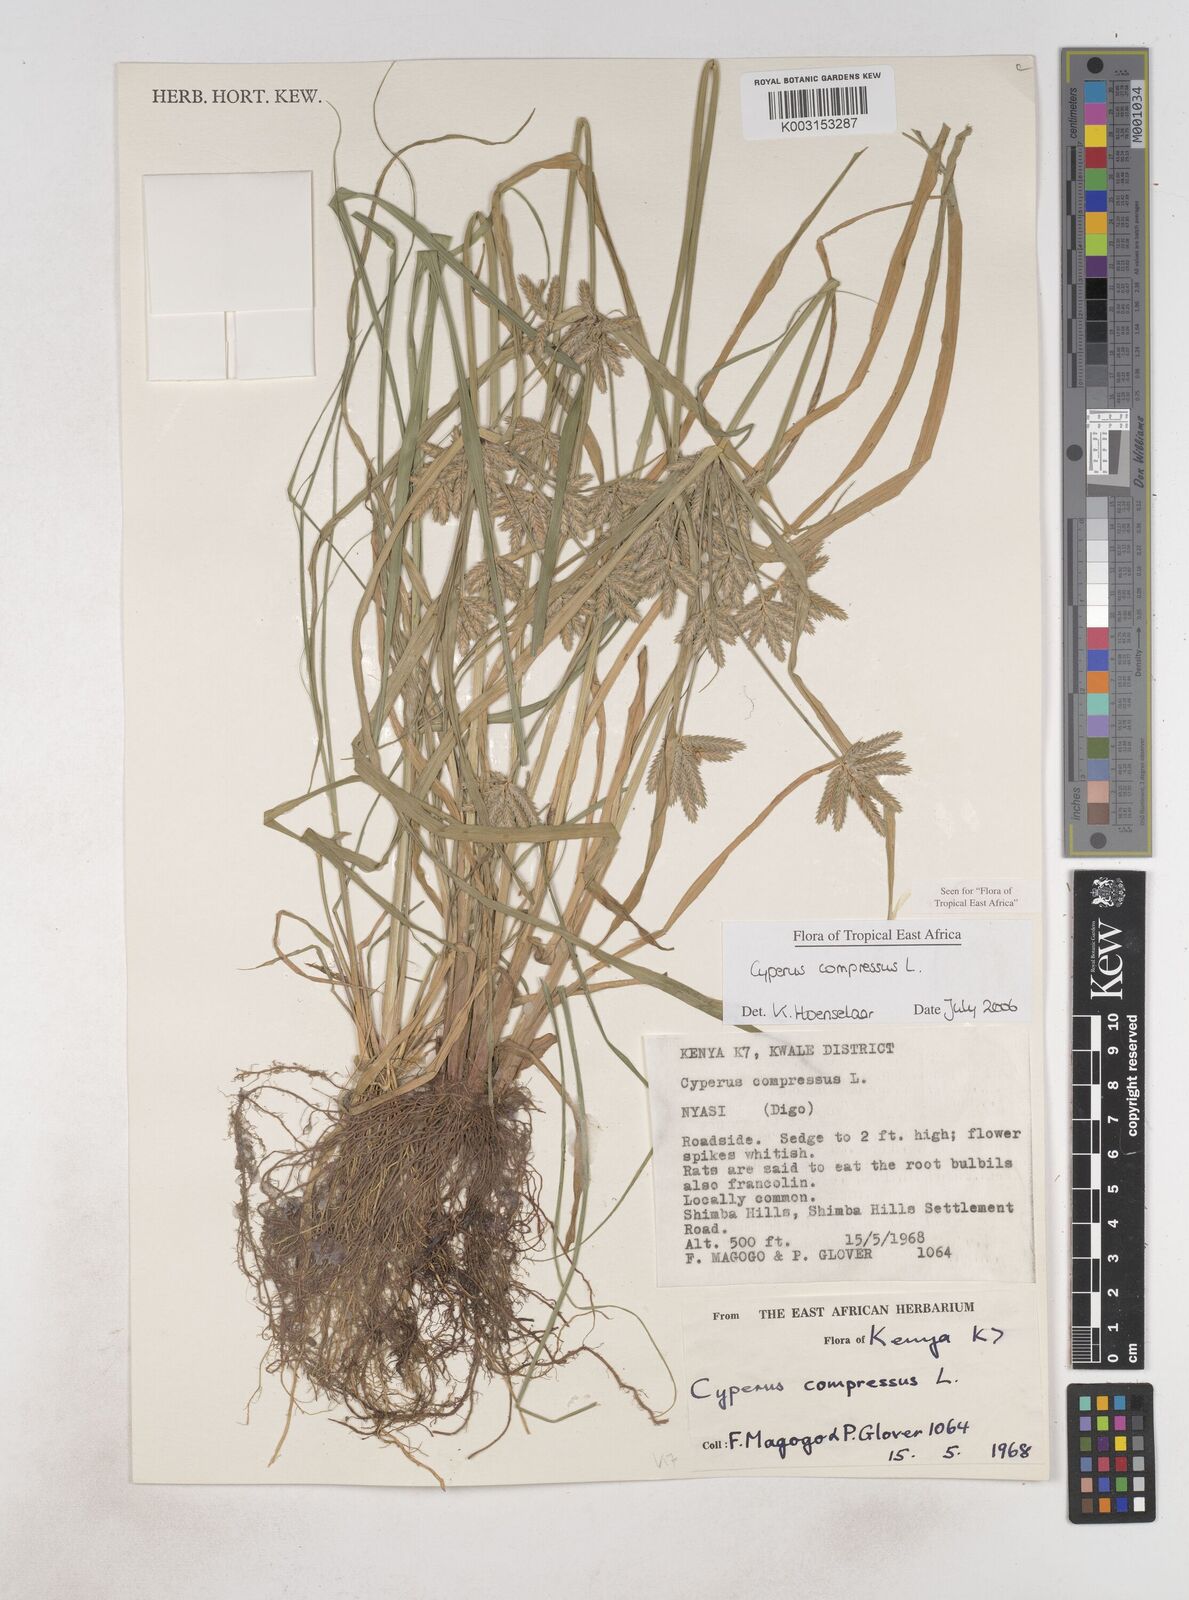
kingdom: Plantae
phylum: Tracheophyta
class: Liliopsida
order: Poales
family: Cyperaceae
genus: Cyperus
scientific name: Cyperus compressus
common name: Poorland flatsedge
